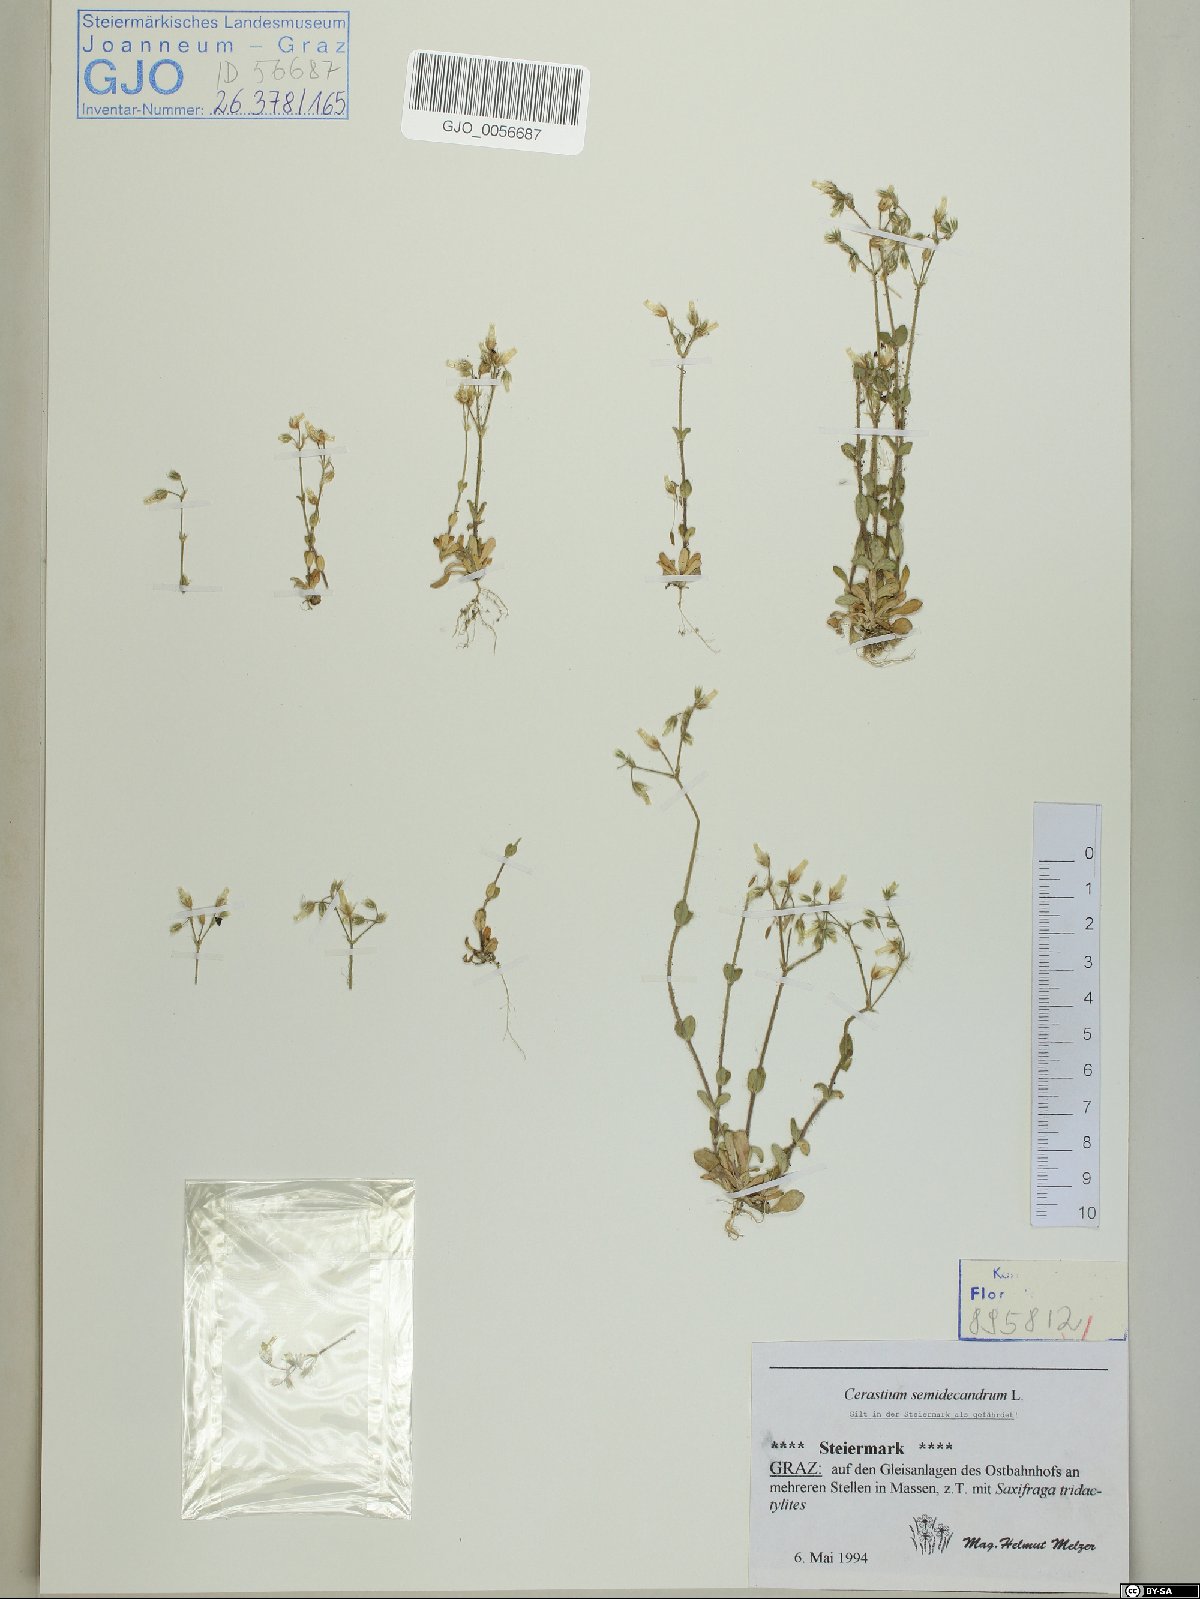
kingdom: Plantae
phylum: Tracheophyta
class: Magnoliopsida
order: Caryophyllales
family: Caryophyllaceae
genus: Cerastium
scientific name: Cerastium semidecandrum
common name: Little mouse-ear
